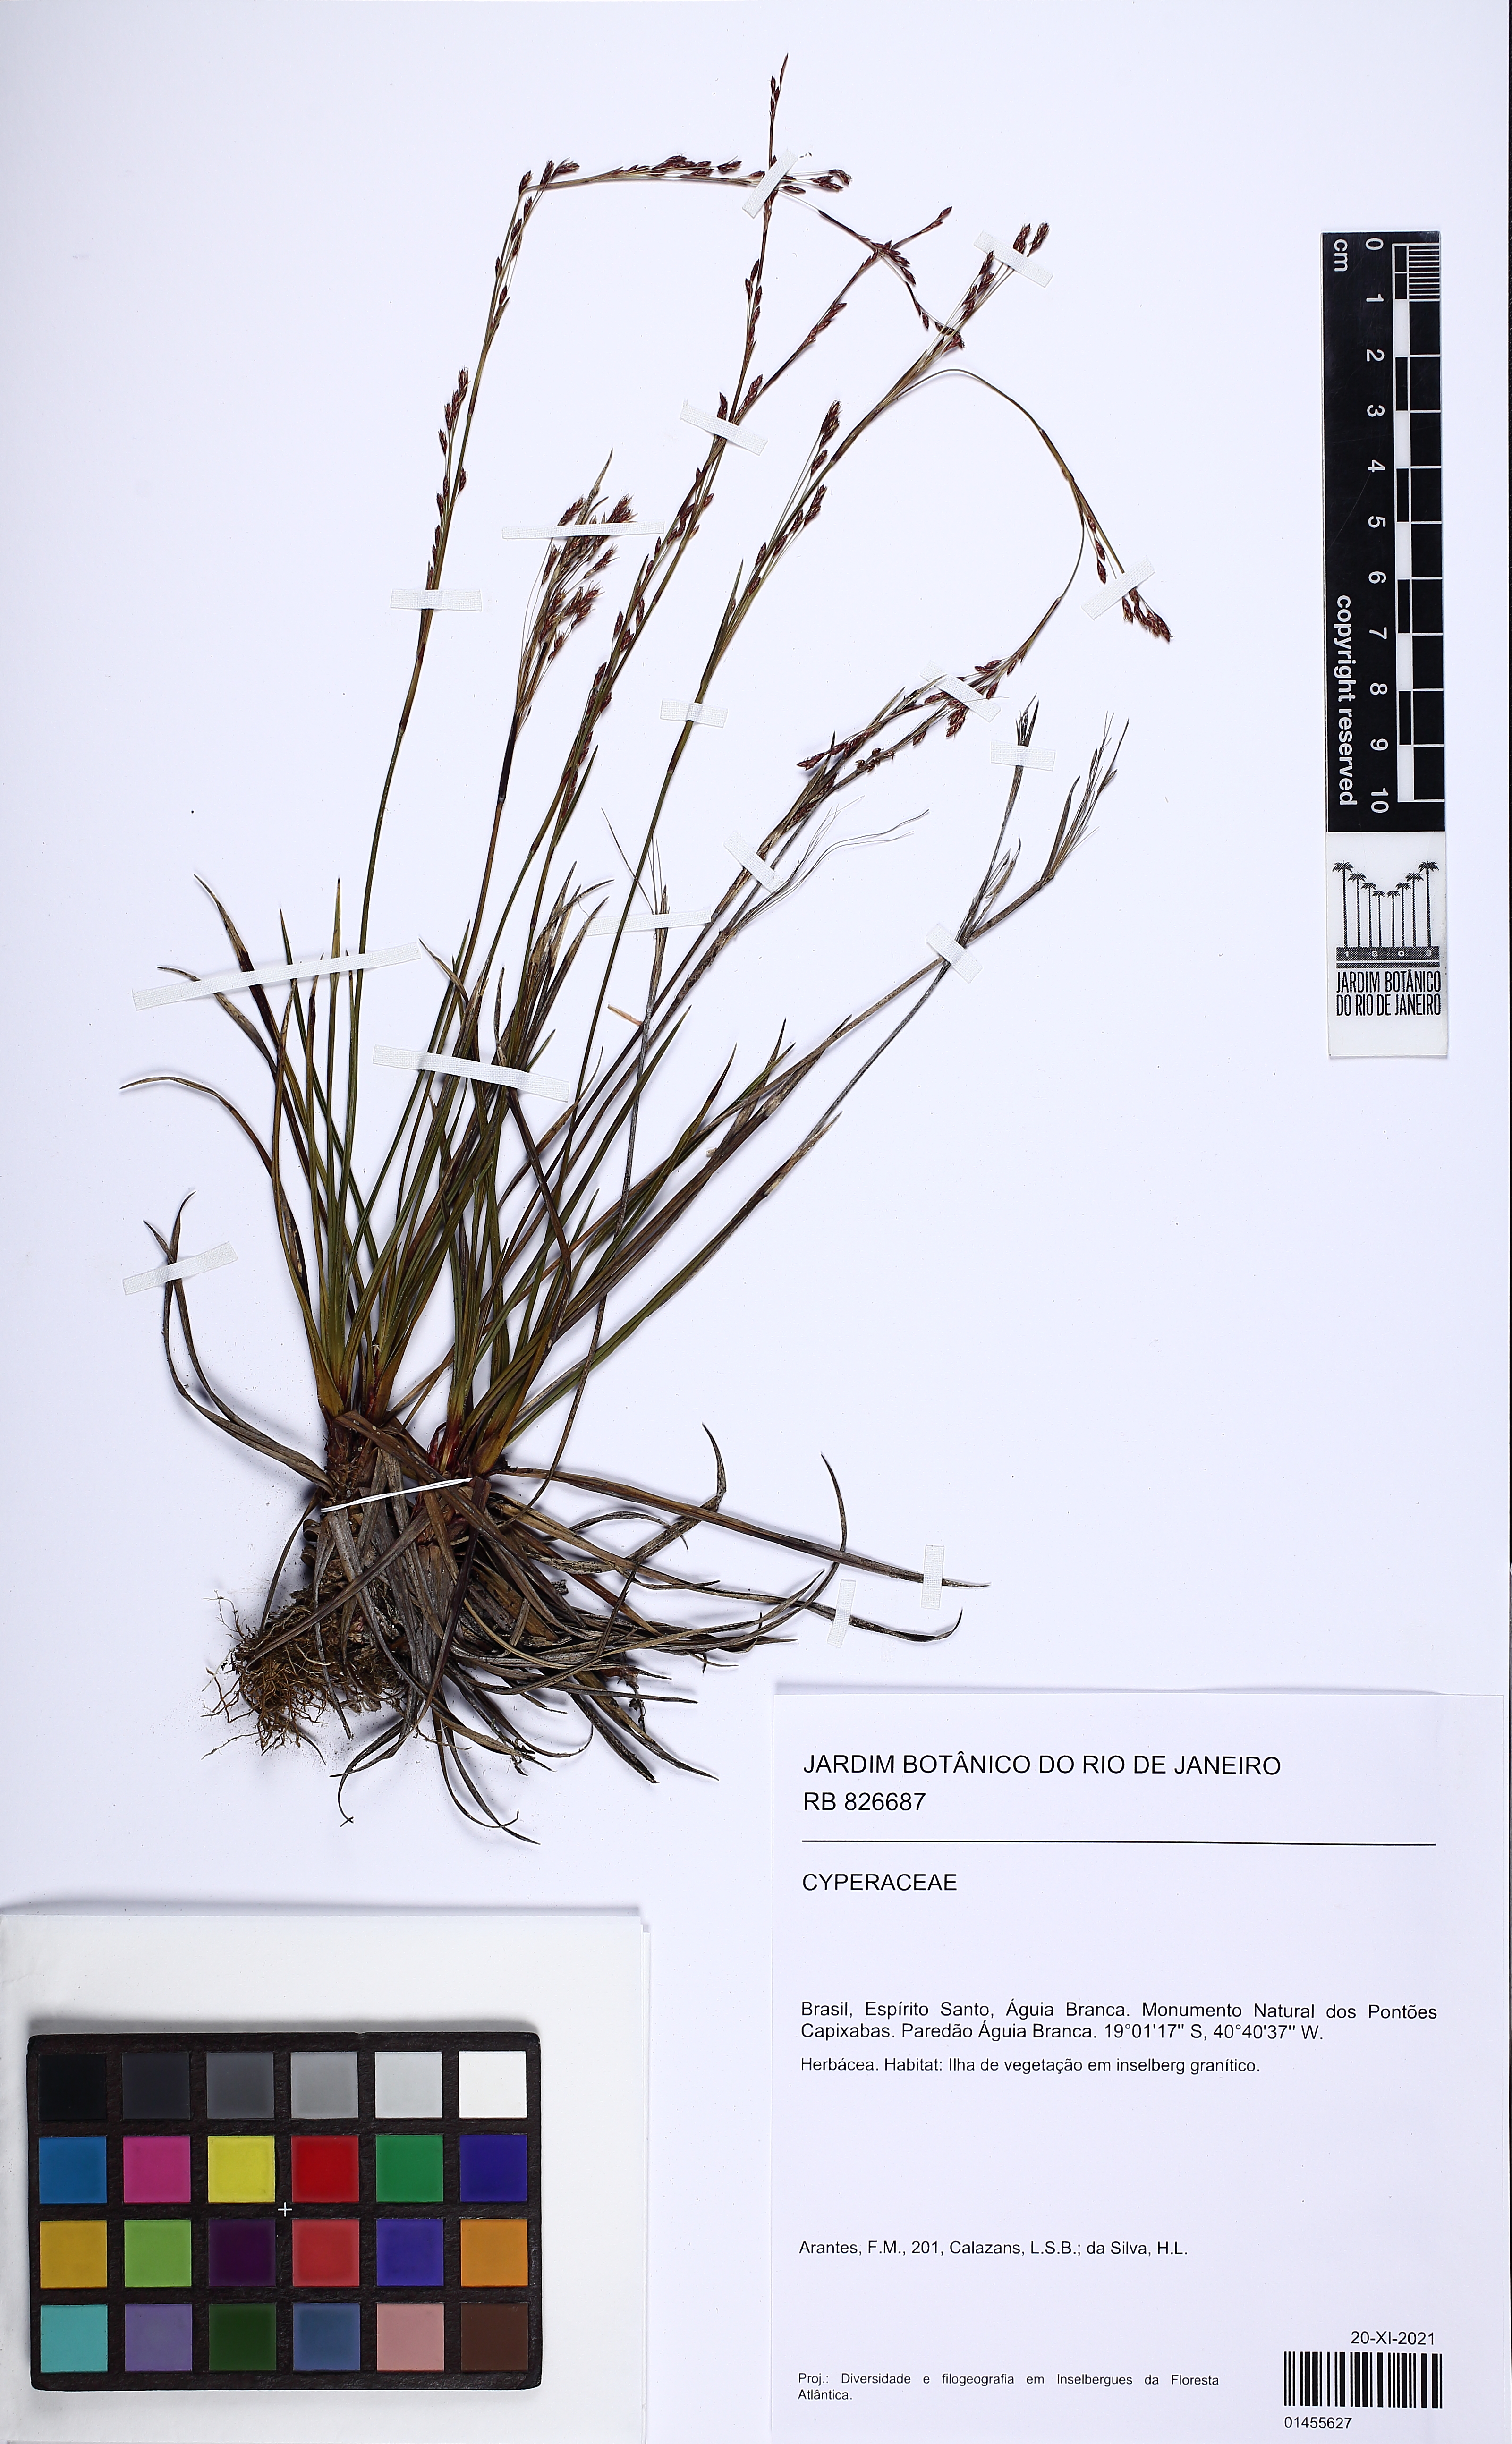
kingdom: Plantae
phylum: Tracheophyta
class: Liliopsida
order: Poales
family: Cyperaceae
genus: Trilepis
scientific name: Trilepis lhotzkiana
